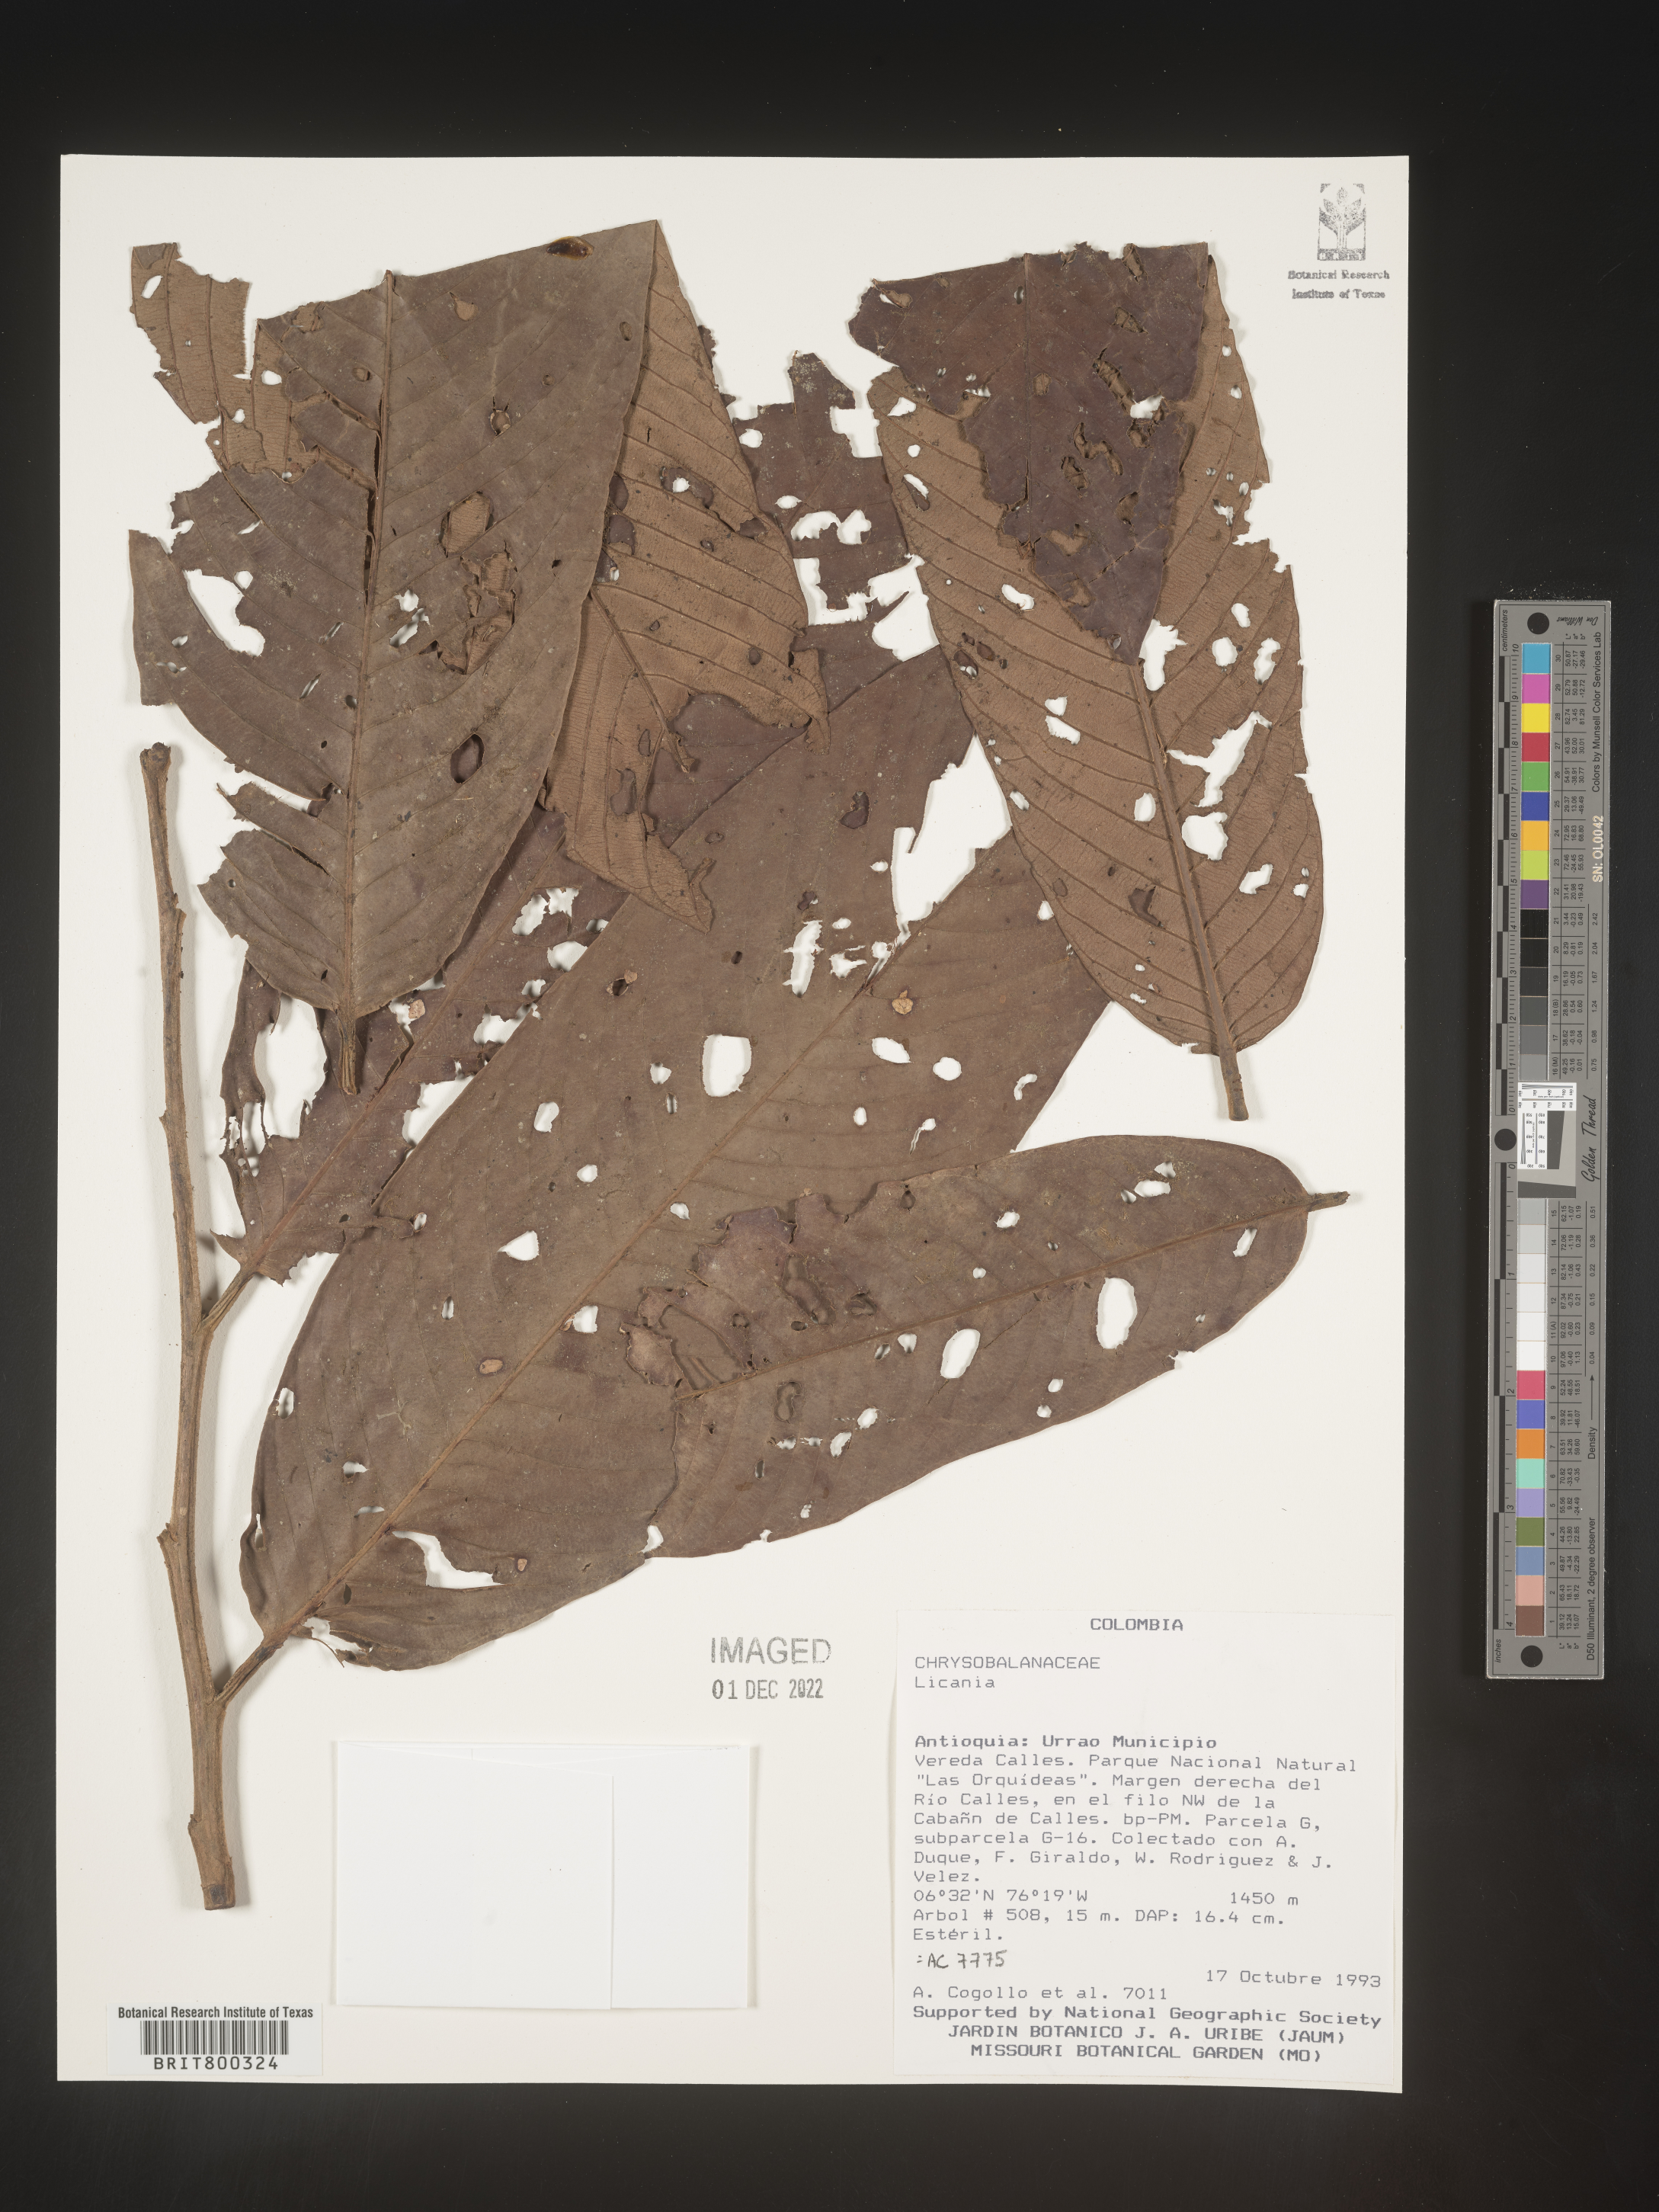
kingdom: Plantae
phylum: Tracheophyta
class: Magnoliopsida
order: Malpighiales
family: Chrysobalanaceae
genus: Licania
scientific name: Licania
